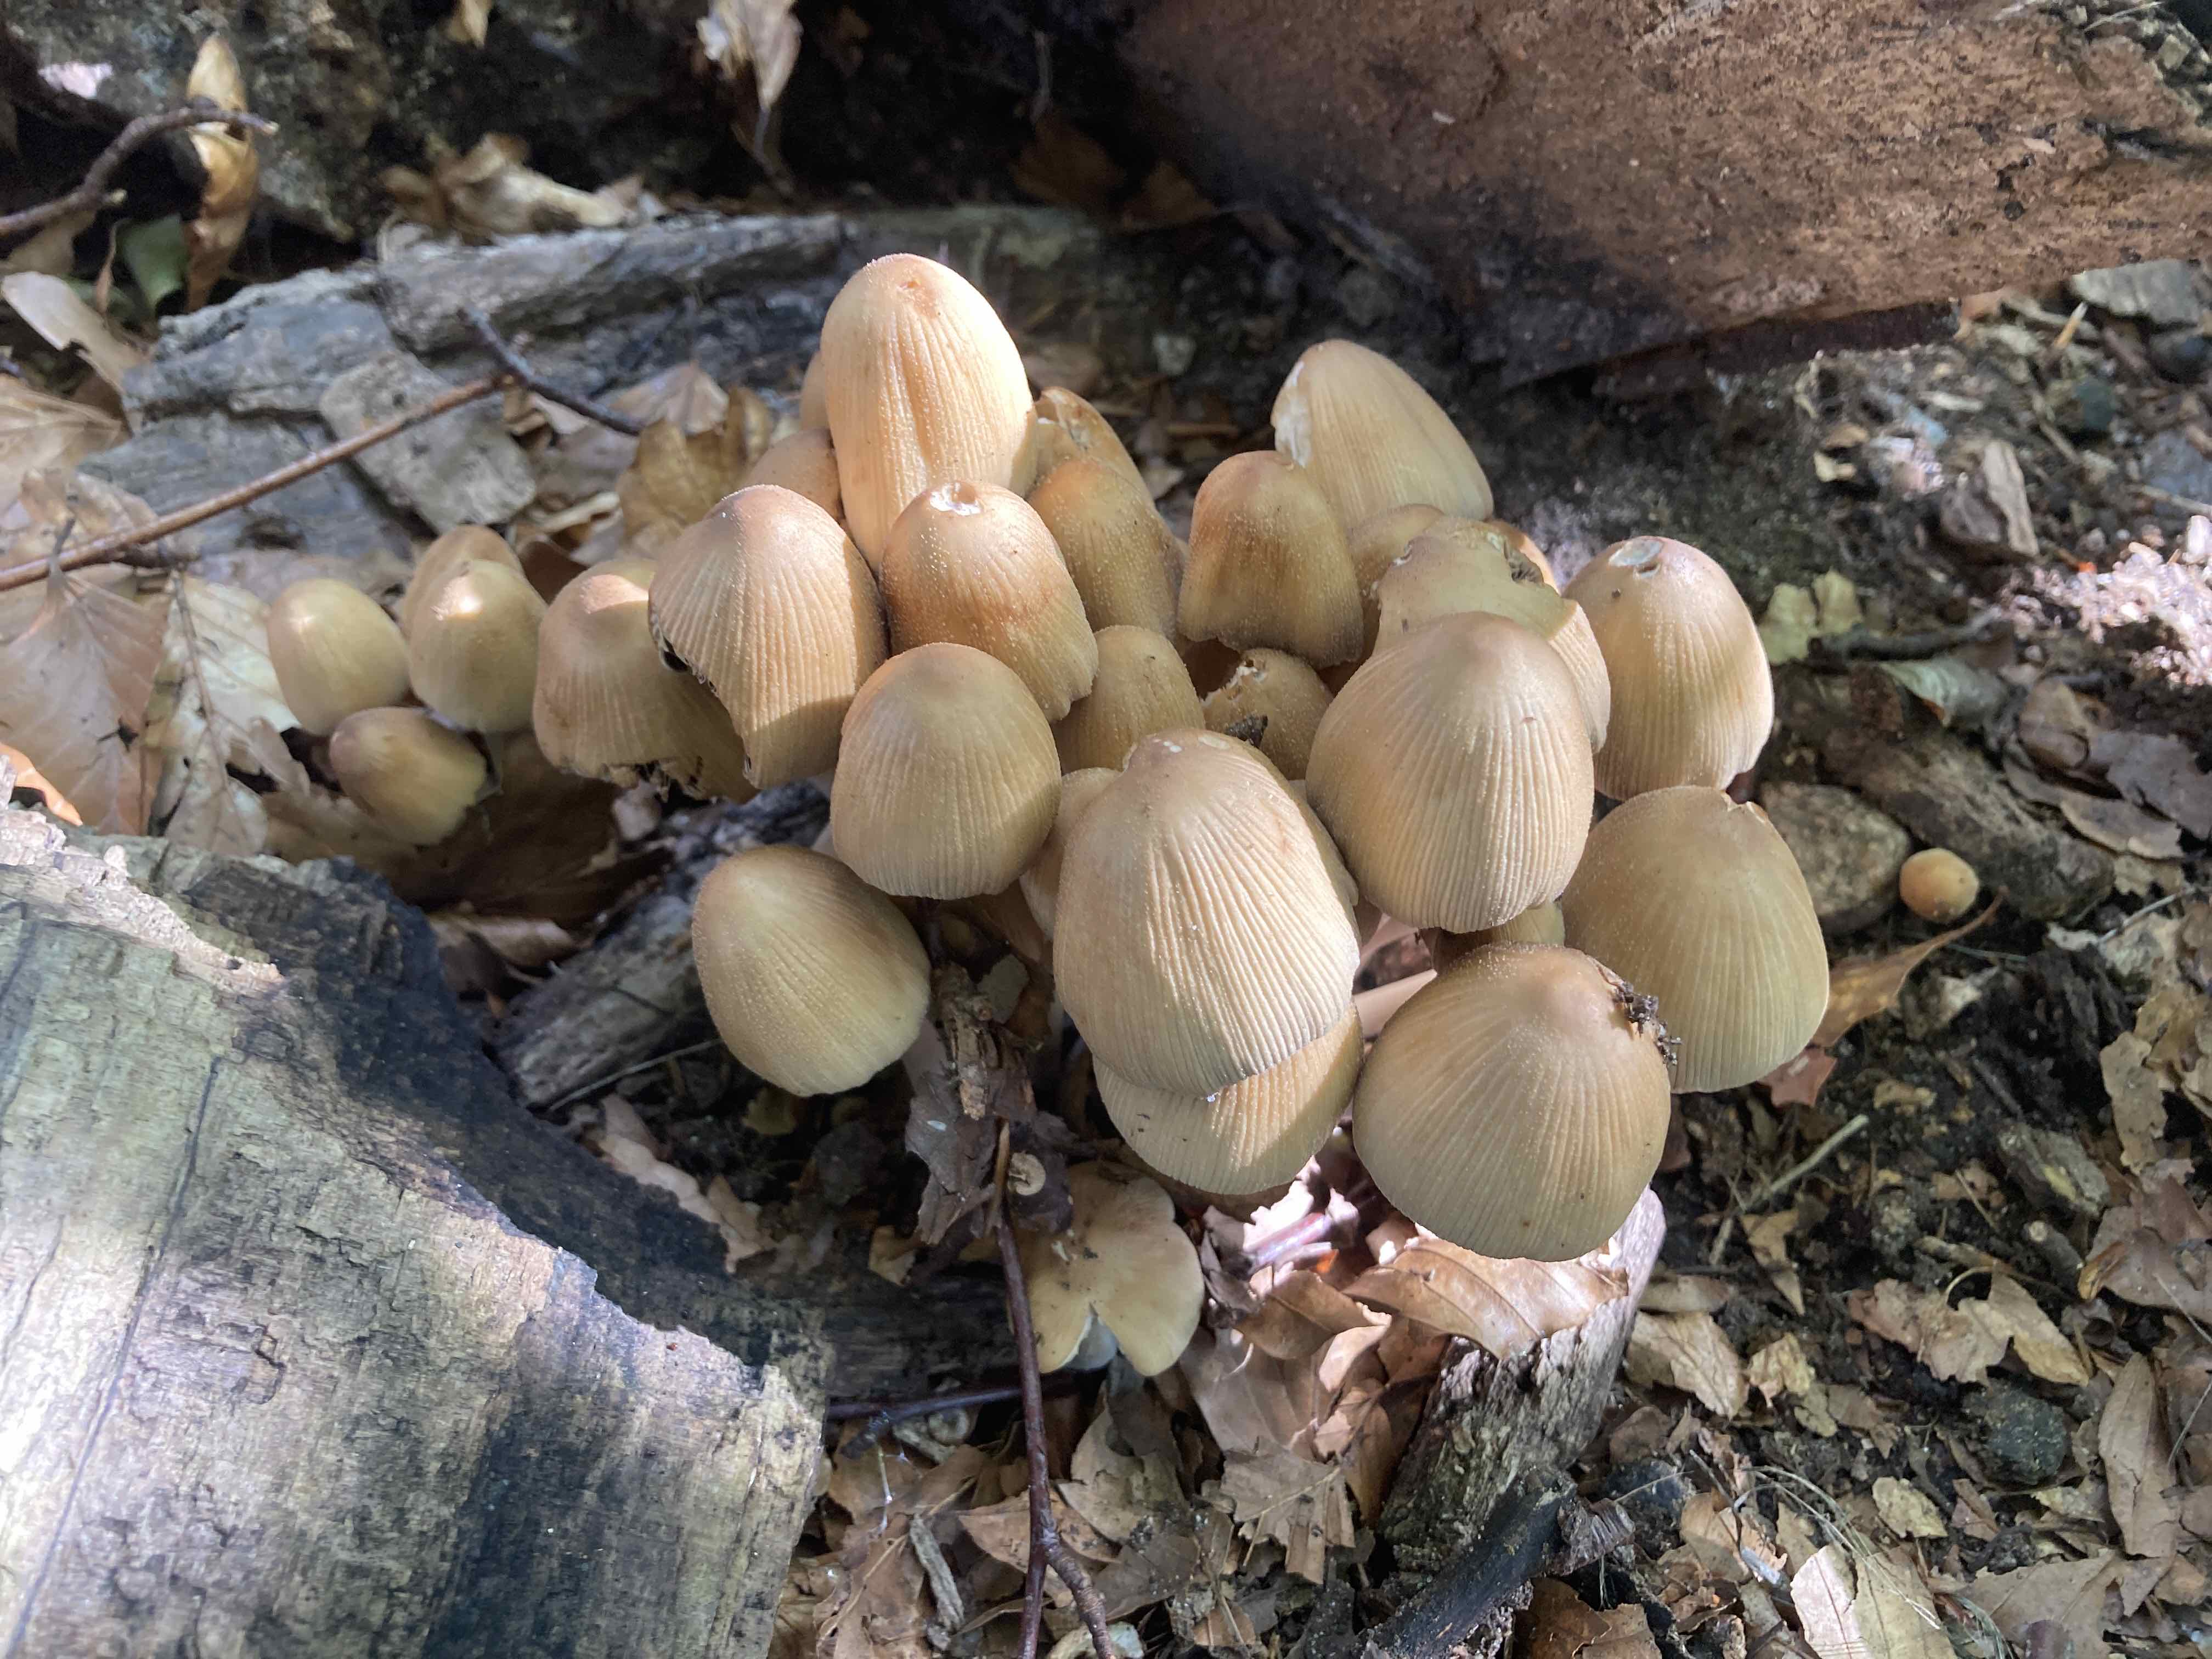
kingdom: Fungi
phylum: Basidiomycota
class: Agaricomycetes
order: Agaricales
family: Psathyrellaceae
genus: Coprinellus
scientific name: Coprinellus micaceus
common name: glimmer-blækhat
